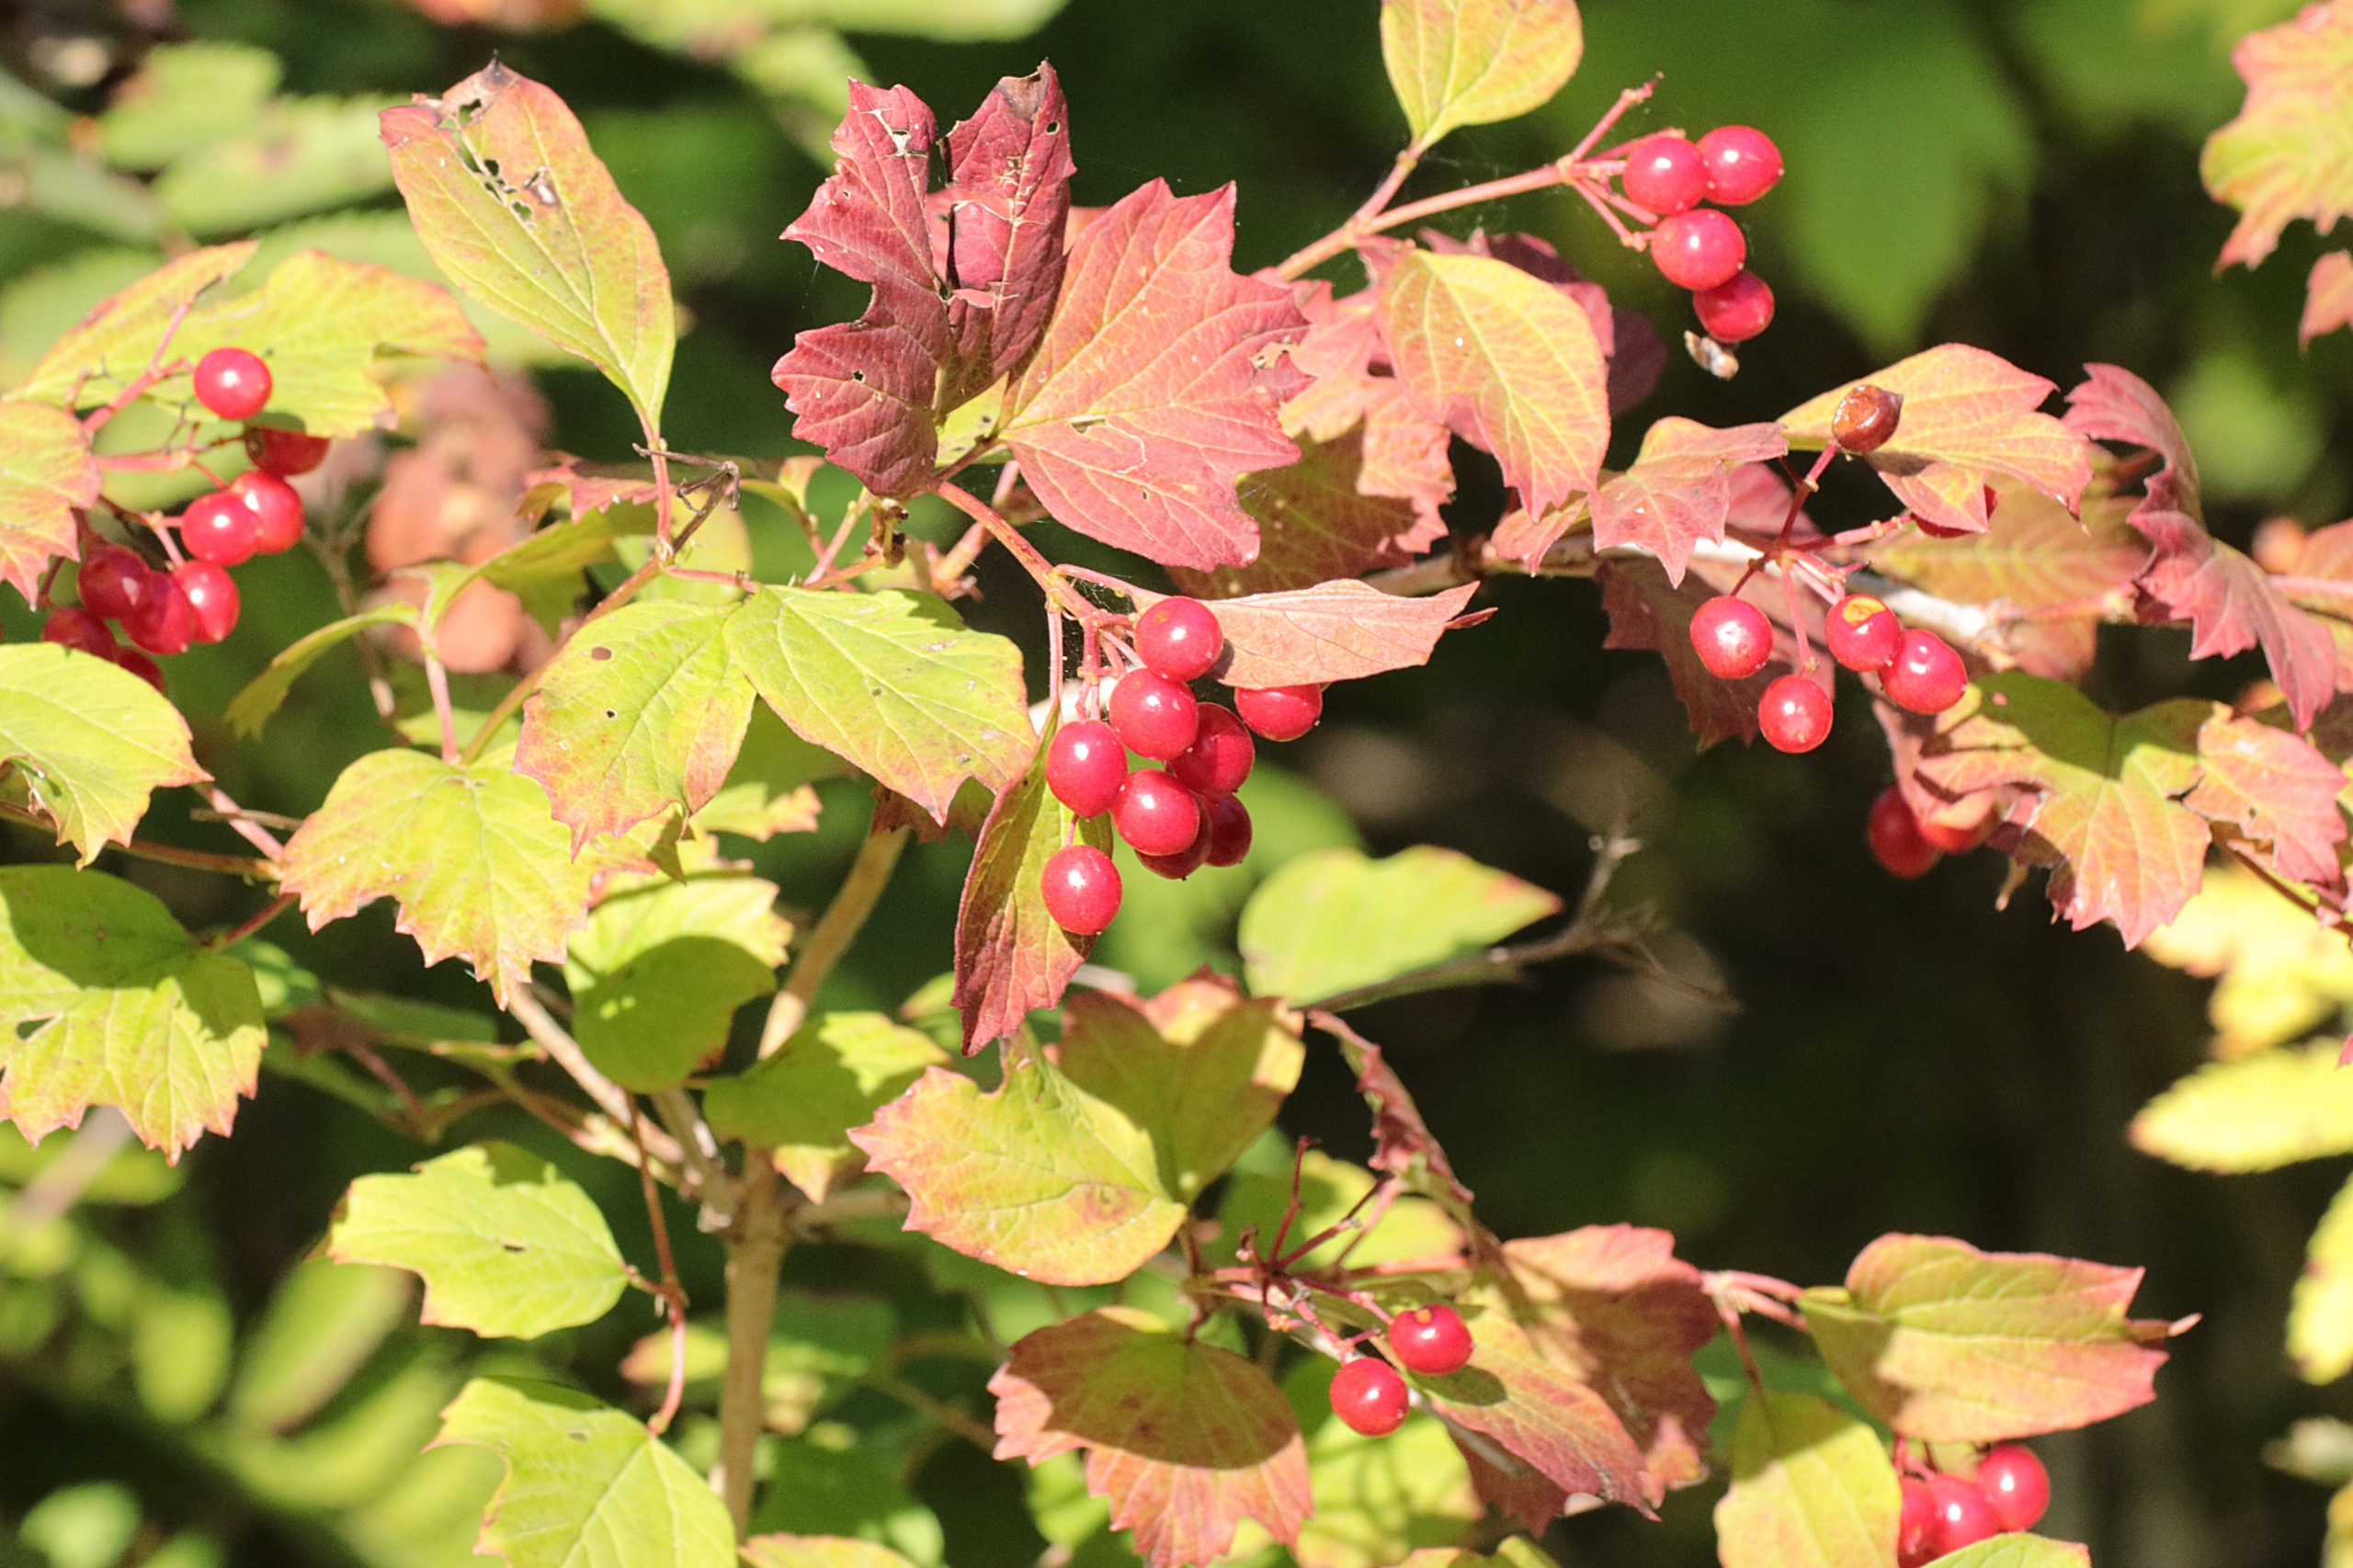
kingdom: Plantae
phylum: Tracheophyta
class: Magnoliopsida
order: Dipsacales
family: Viburnaceae
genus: Viburnum
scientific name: Viburnum opulus
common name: Kvalkved
